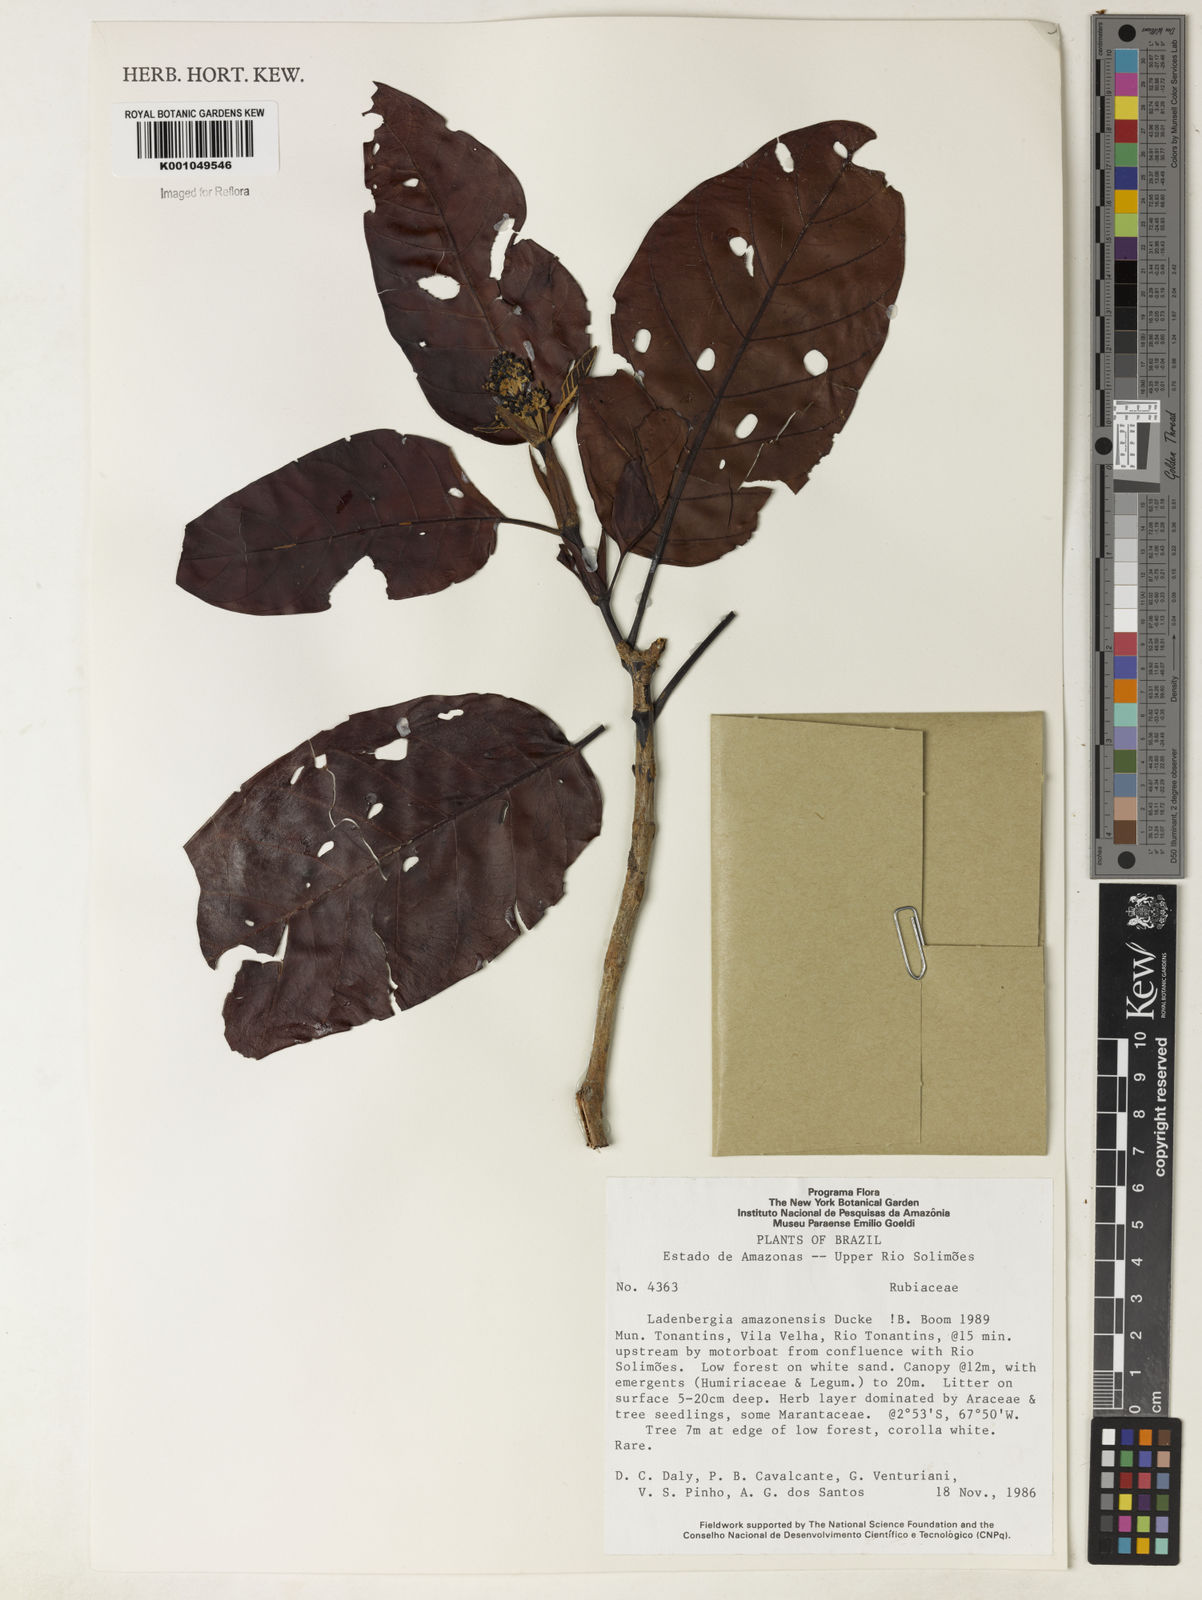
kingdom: Plantae
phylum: Tracheophyta
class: Magnoliopsida
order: Gentianales
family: Rubiaceae
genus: Ladenbergia
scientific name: Ladenbergia amazonensis
